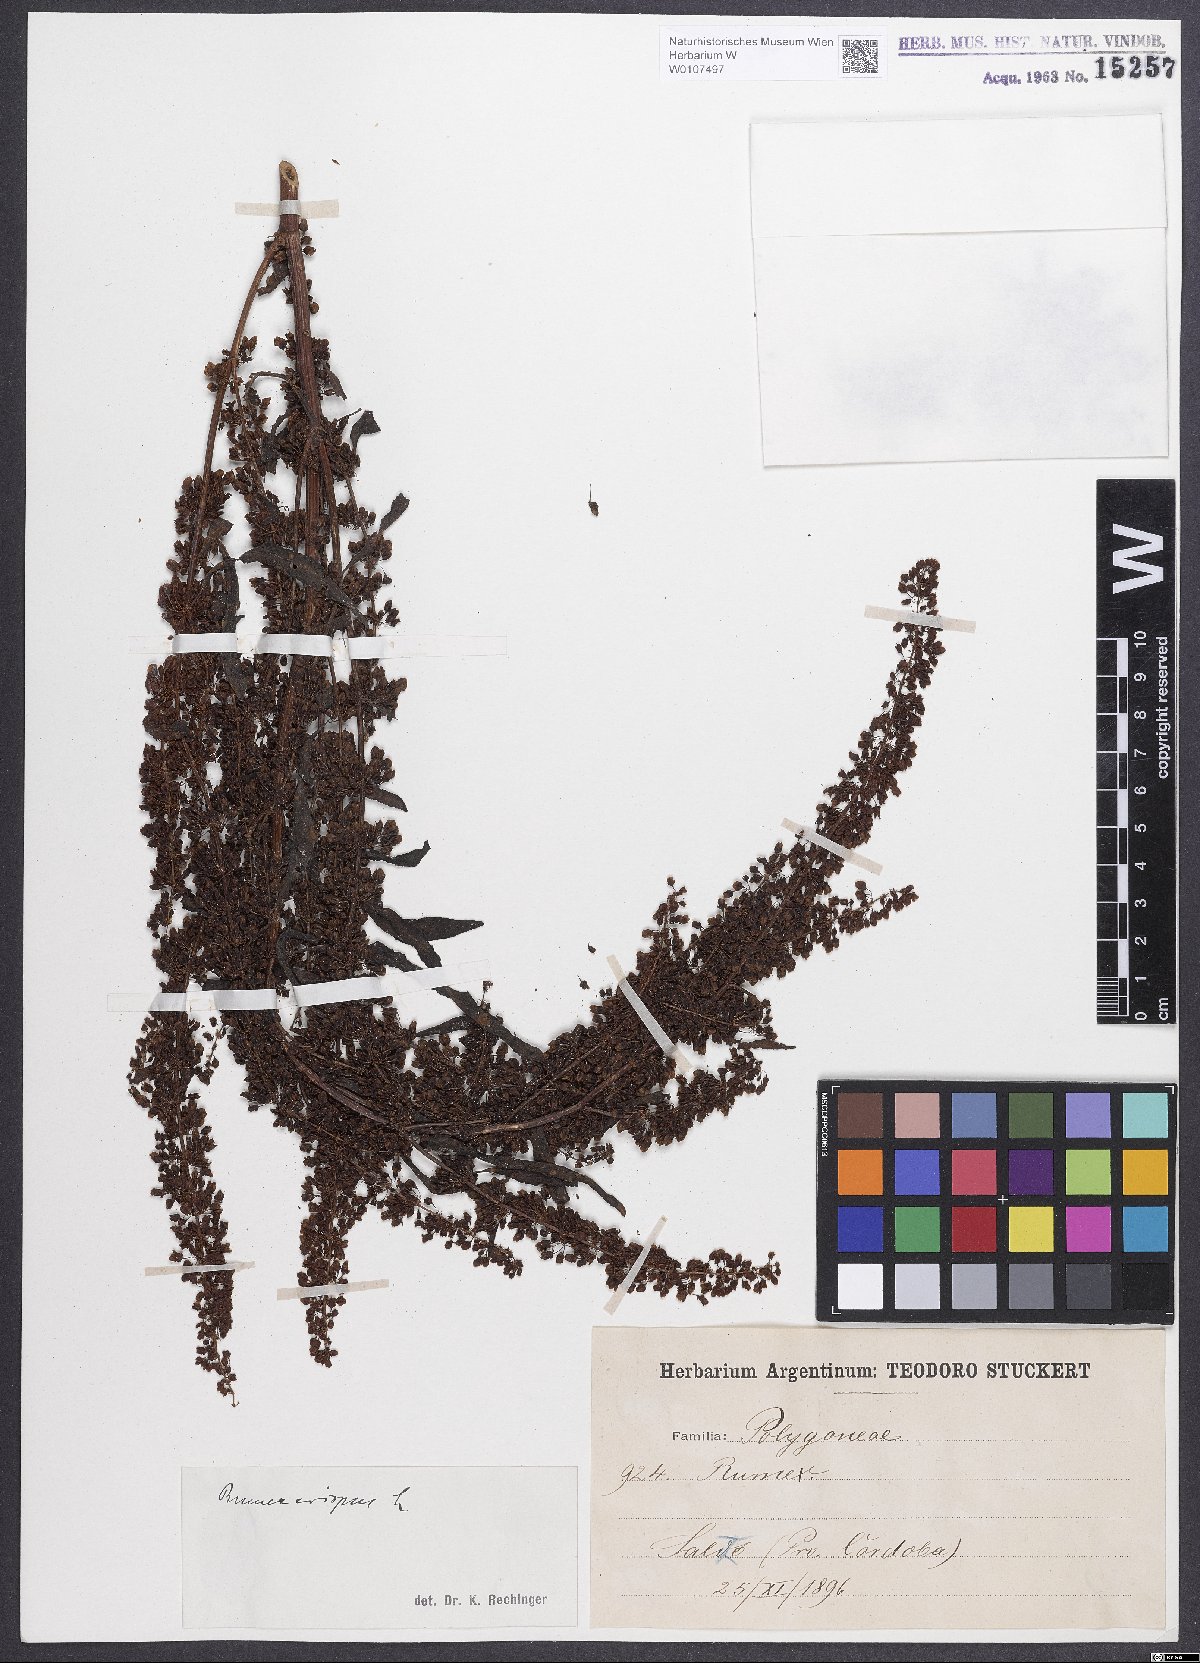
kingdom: Plantae
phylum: Tracheophyta
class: Magnoliopsida
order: Caryophyllales
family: Polygonaceae
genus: Rumex
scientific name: Rumex crispus
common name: Curled dock
